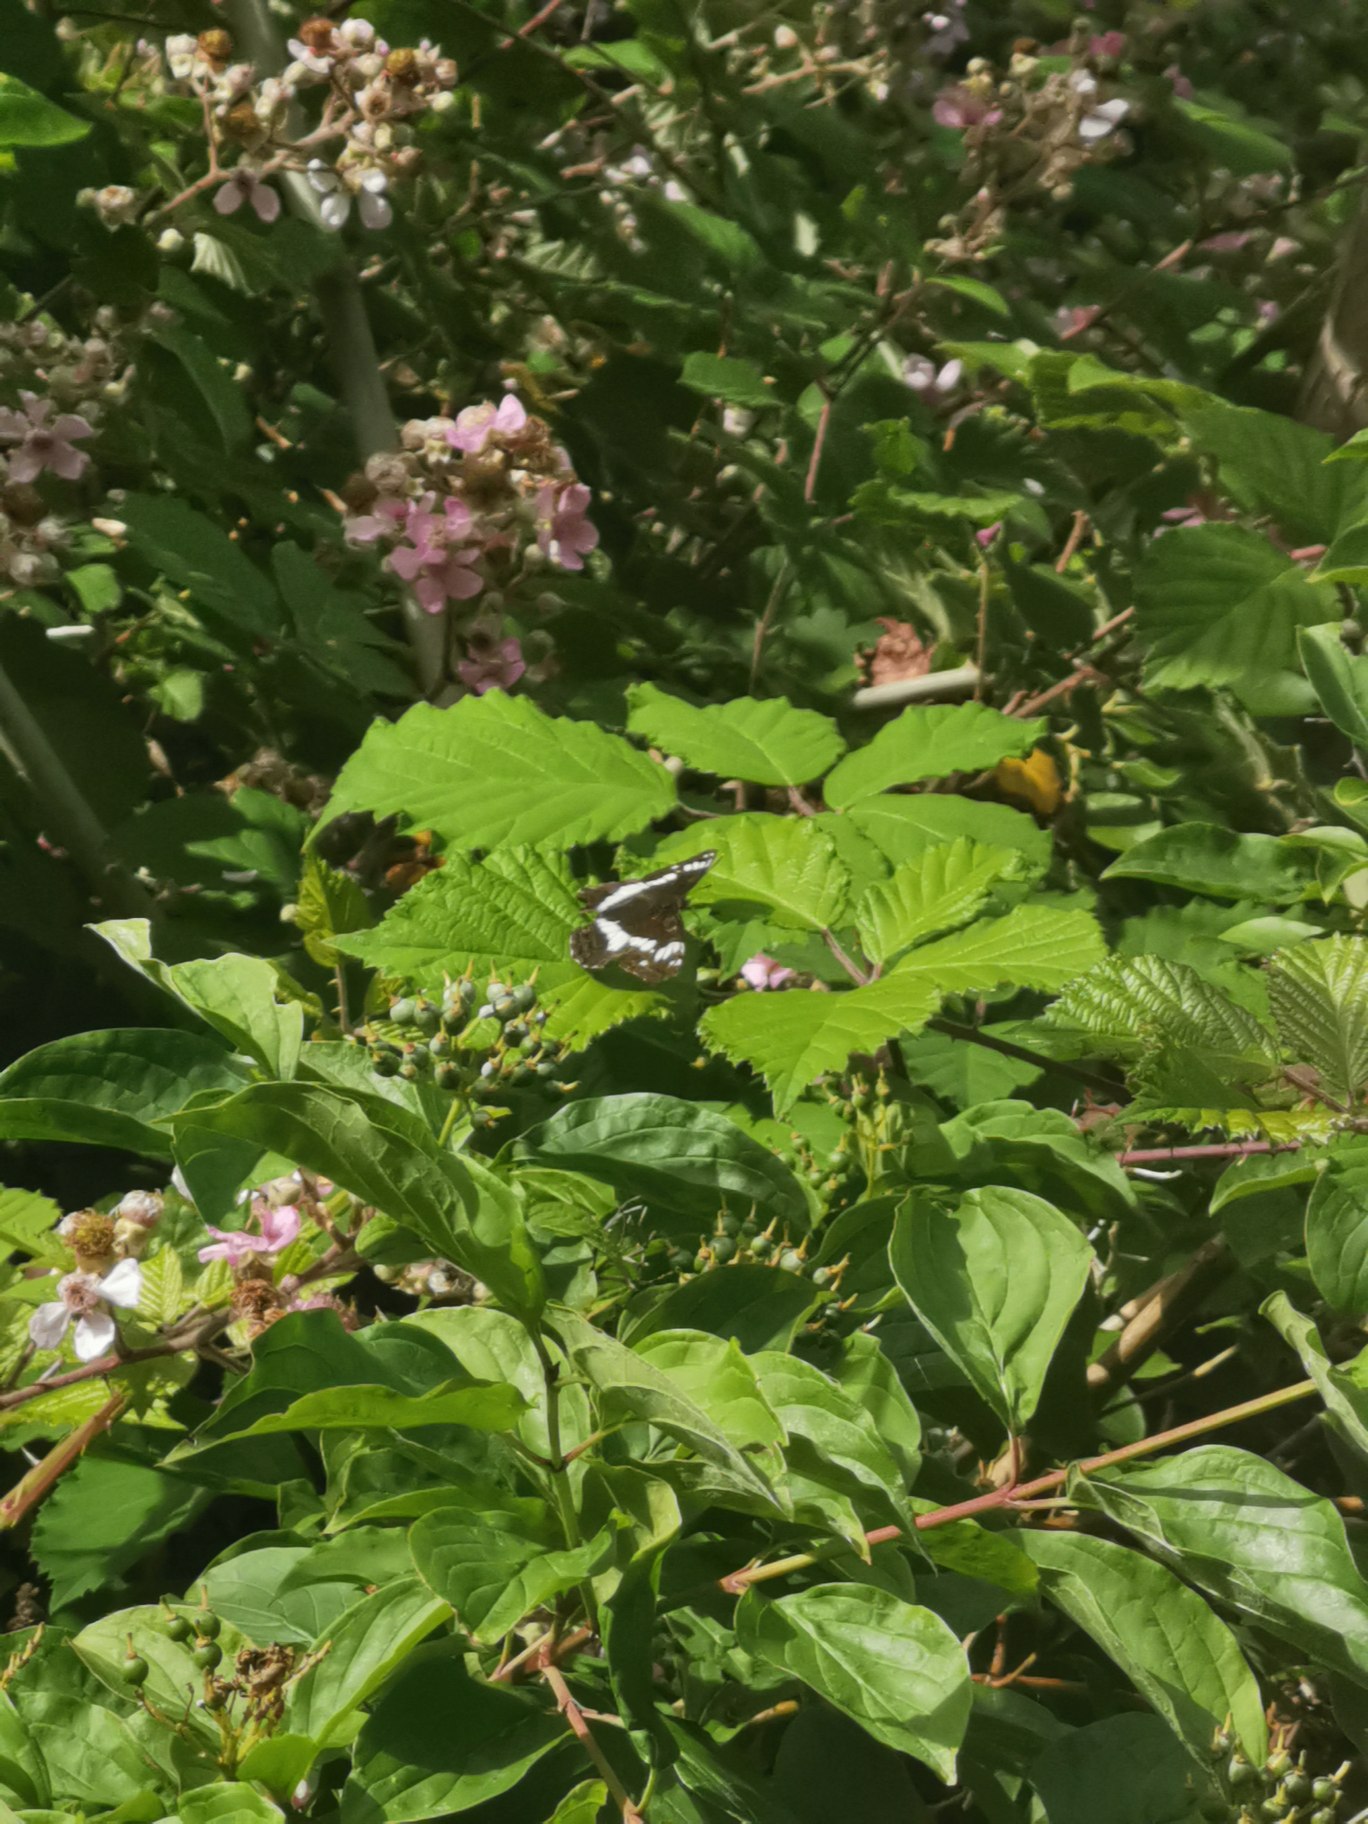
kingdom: Animalia
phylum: Arthropoda
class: Insecta
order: Lepidoptera
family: Nymphalidae
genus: Ladoga
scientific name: Ladoga camilla
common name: Hvid admiral
